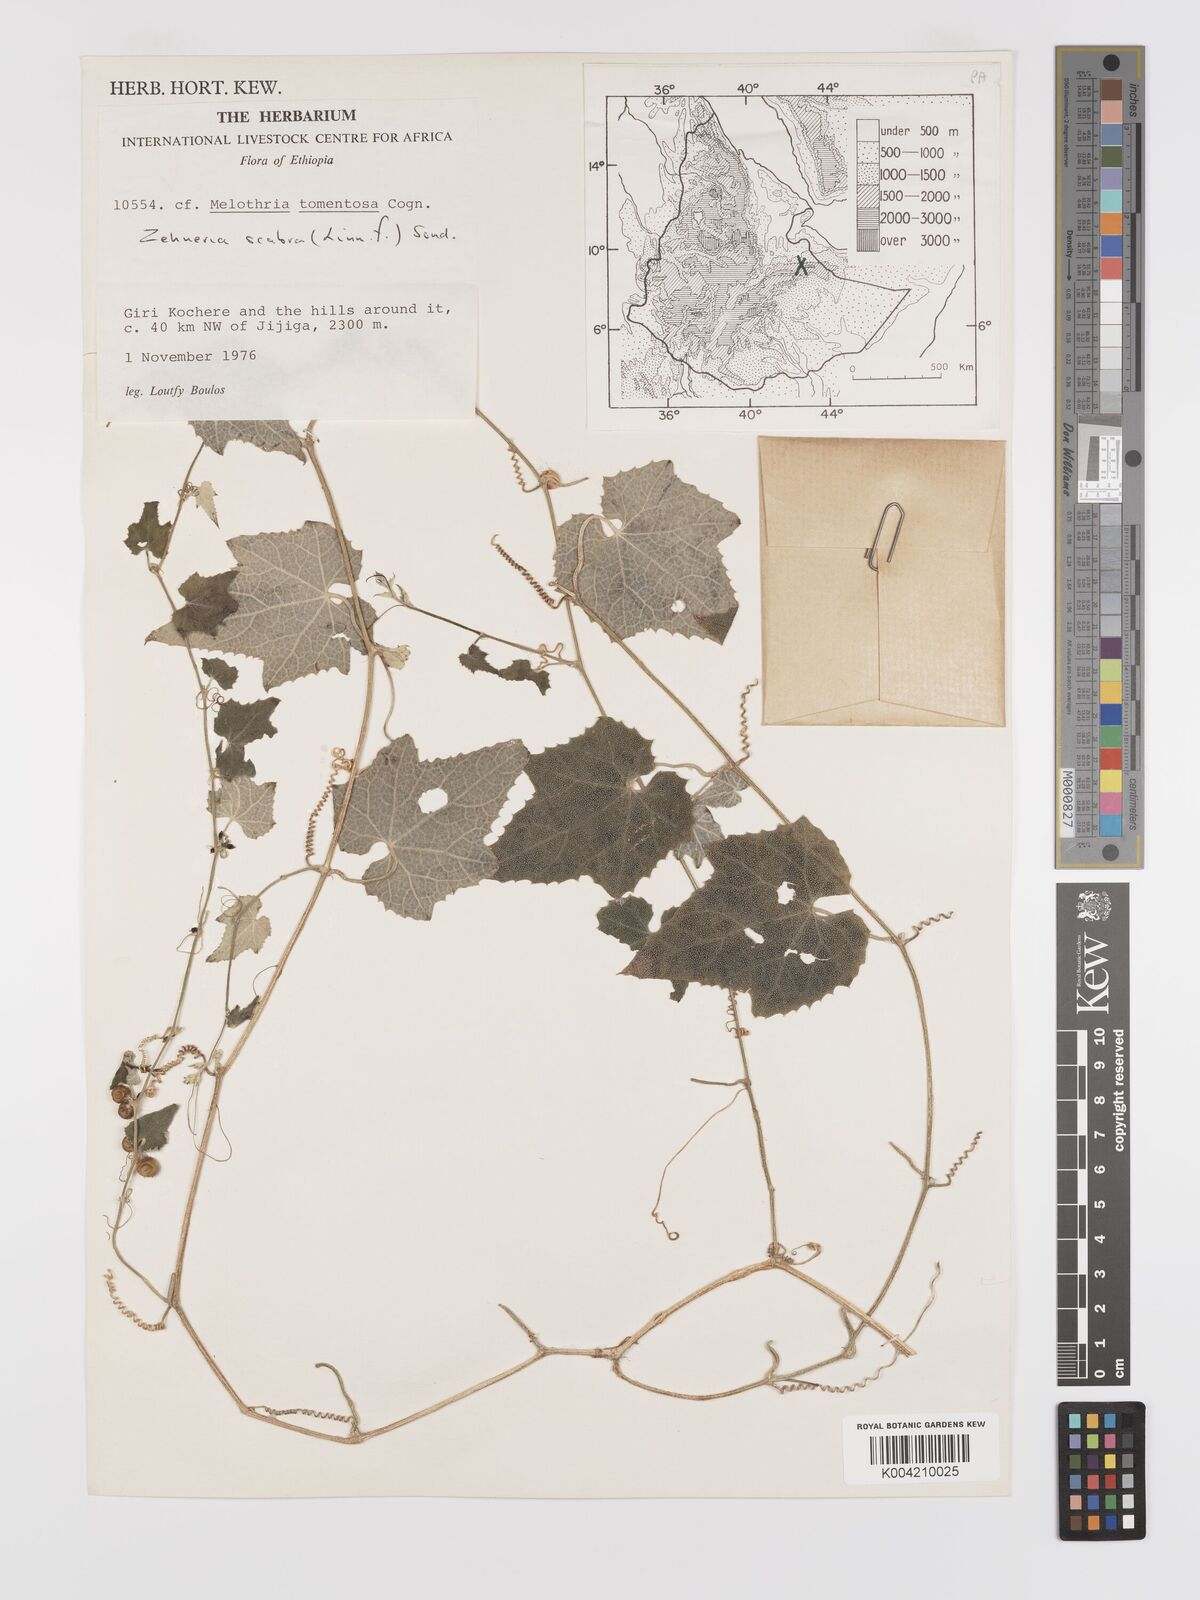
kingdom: Plantae
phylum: Tracheophyta
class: Magnoliopsida
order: Cucurbitales
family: Cucurbitaceae
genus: Zehneria
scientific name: Zehneria scabra
